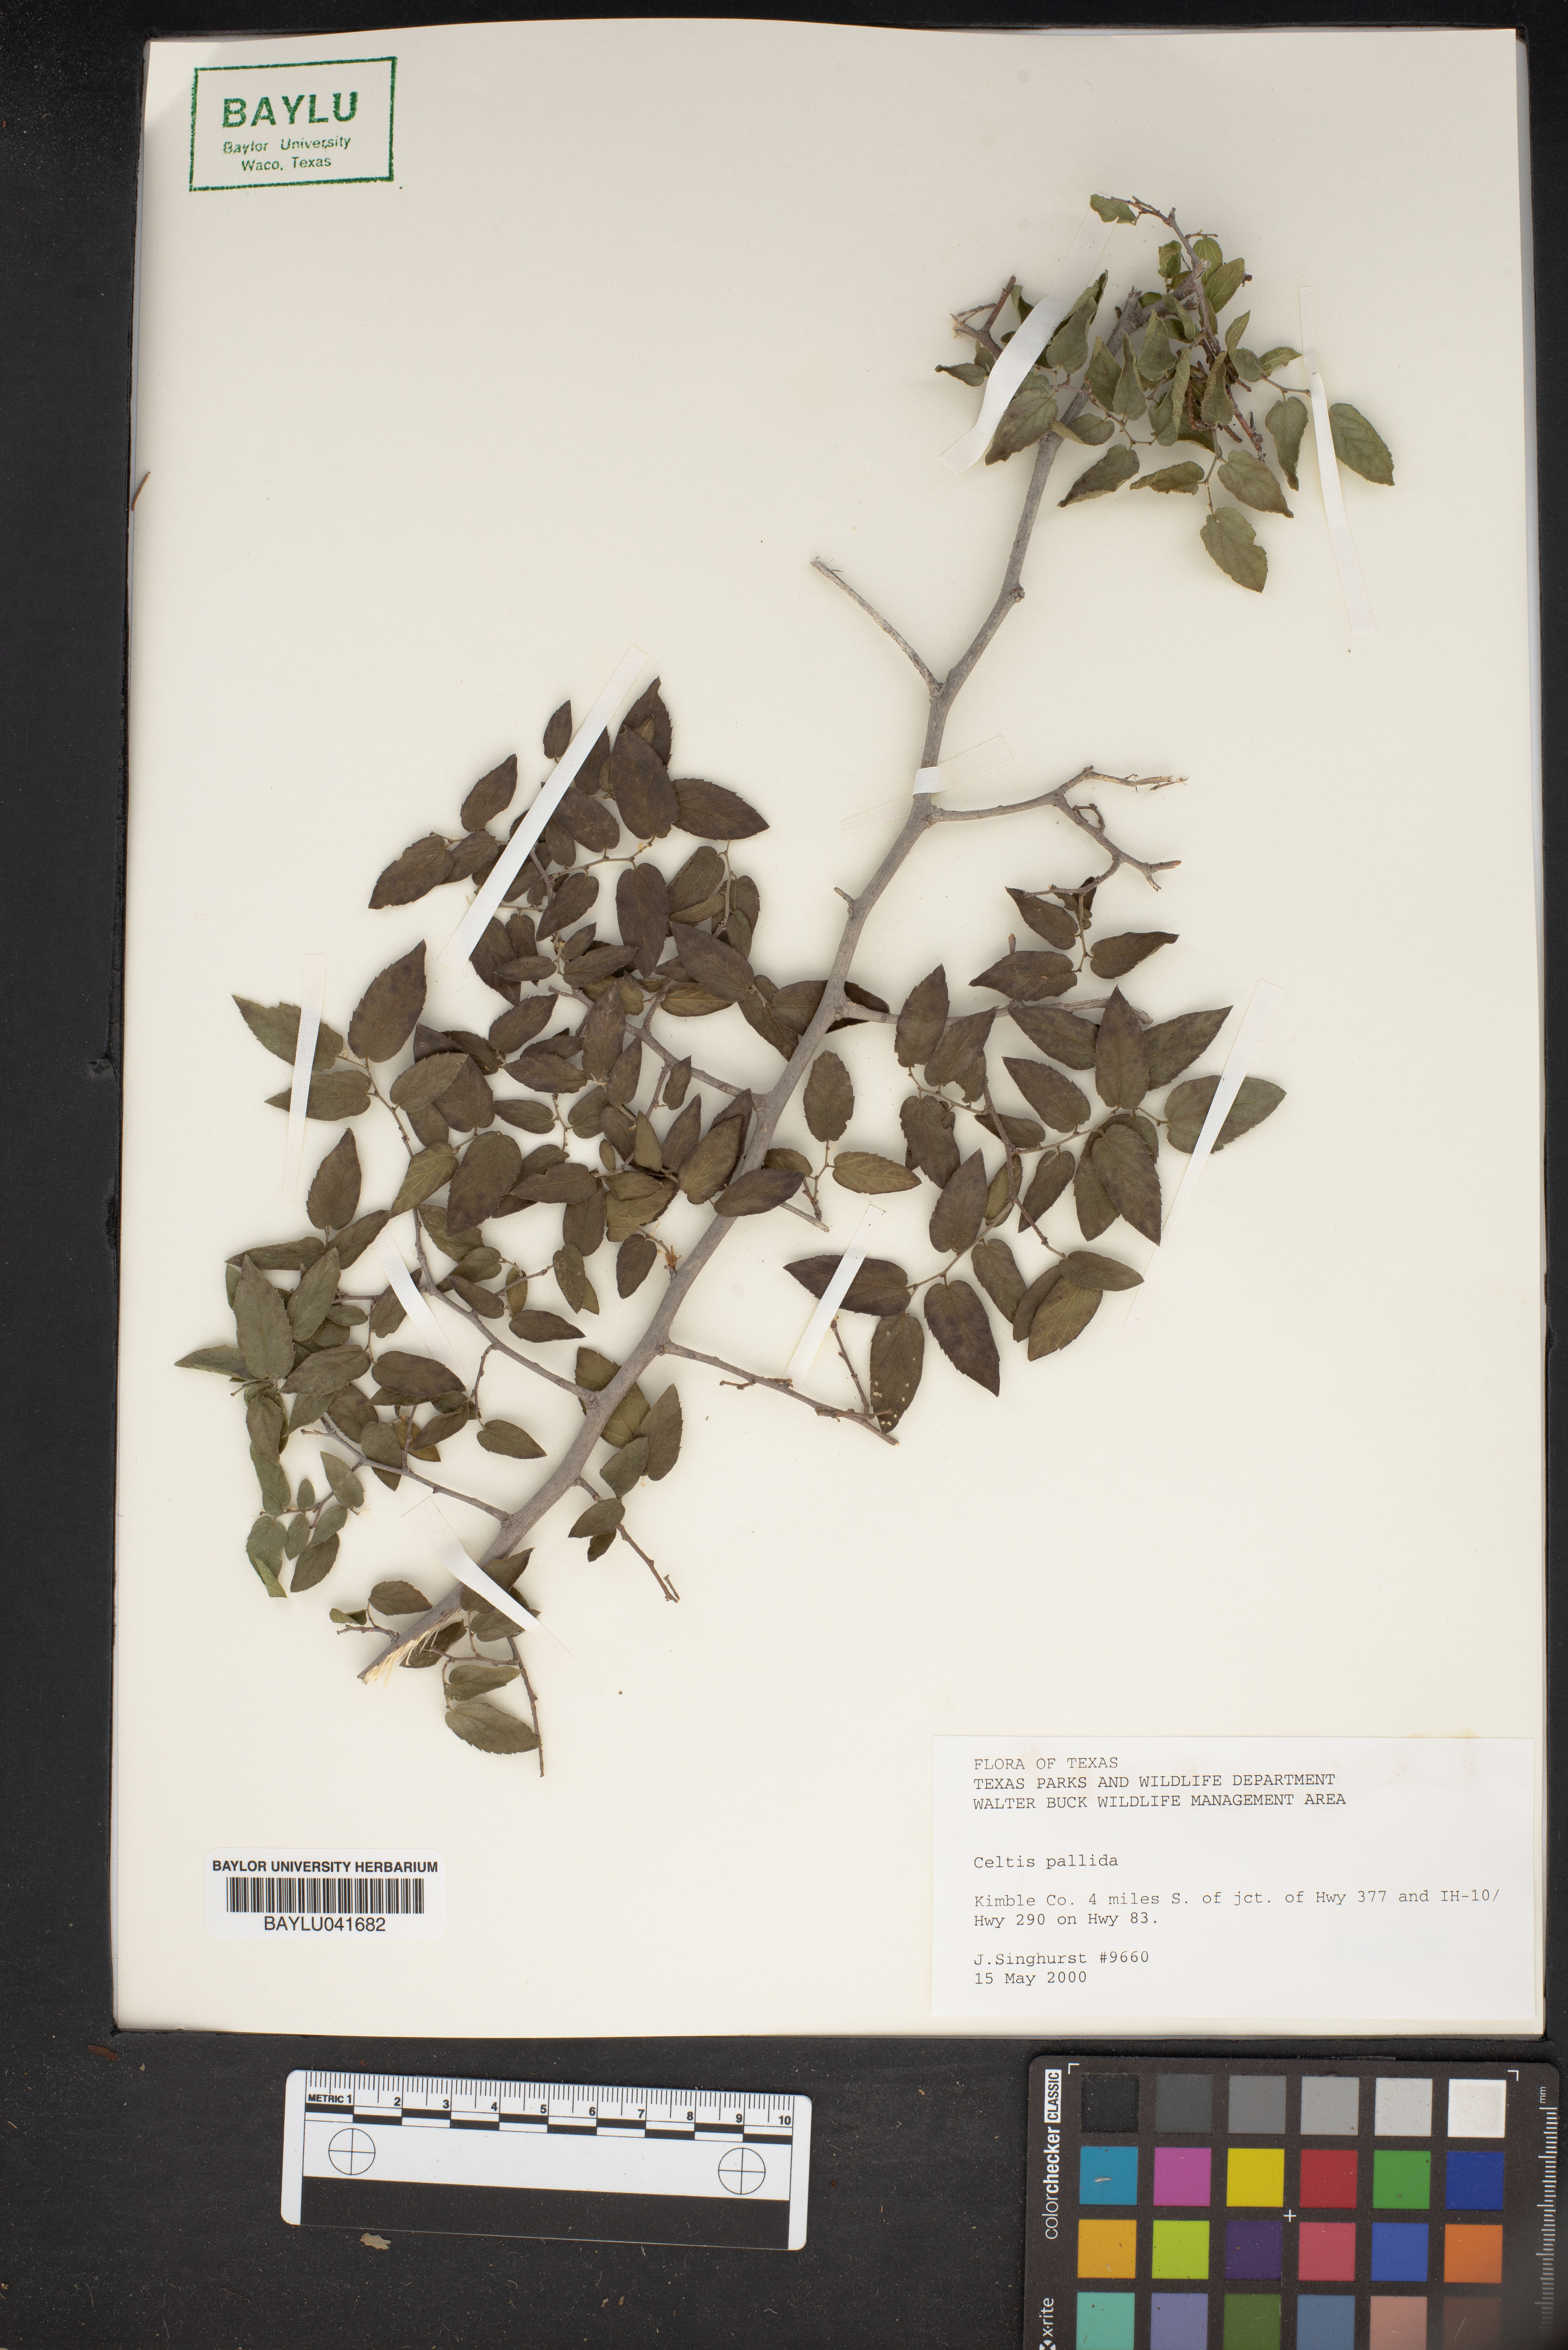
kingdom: Plantae
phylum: Tracheophyta
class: Magnoliopsida
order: Rosales
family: Cannabaceae
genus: Celtis
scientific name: Celtis pallida
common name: Desert hackberry
